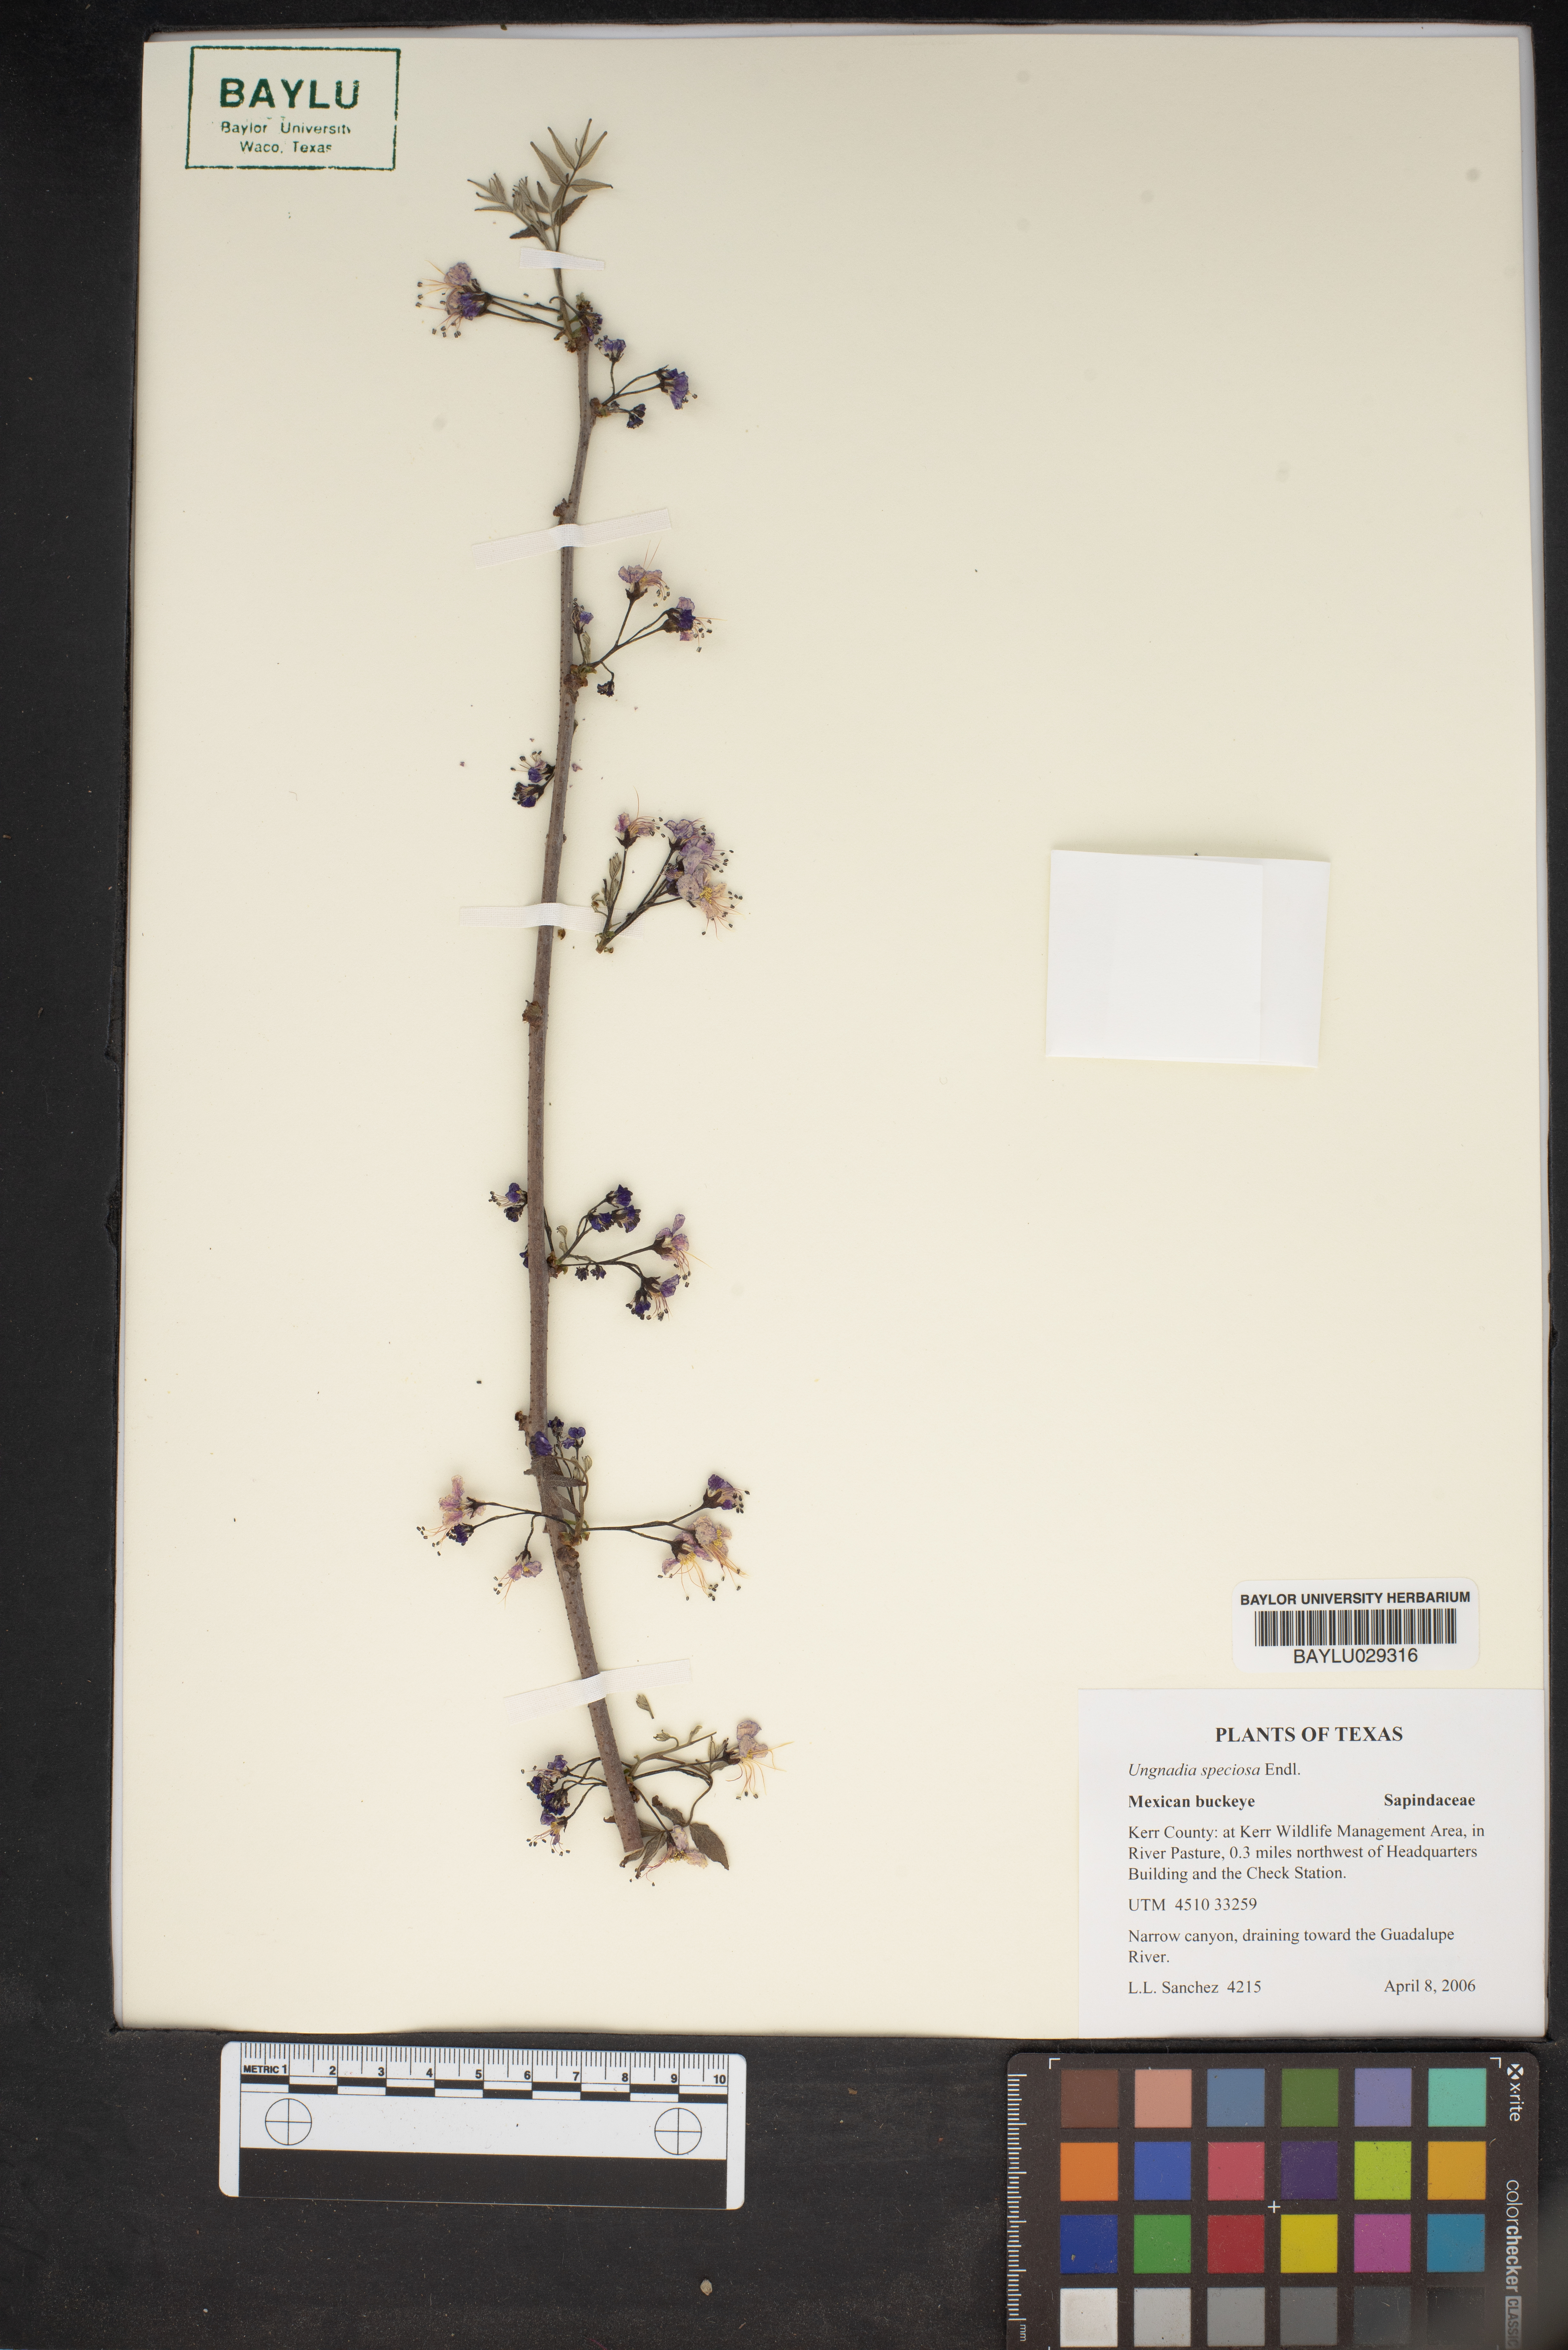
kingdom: Plantae
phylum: Tracheophyta
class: Magnoliopsida
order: Sapindales
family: Sapindaceae
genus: Ungnadia
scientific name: Ungnadia speciosa
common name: Texas-buckeye
